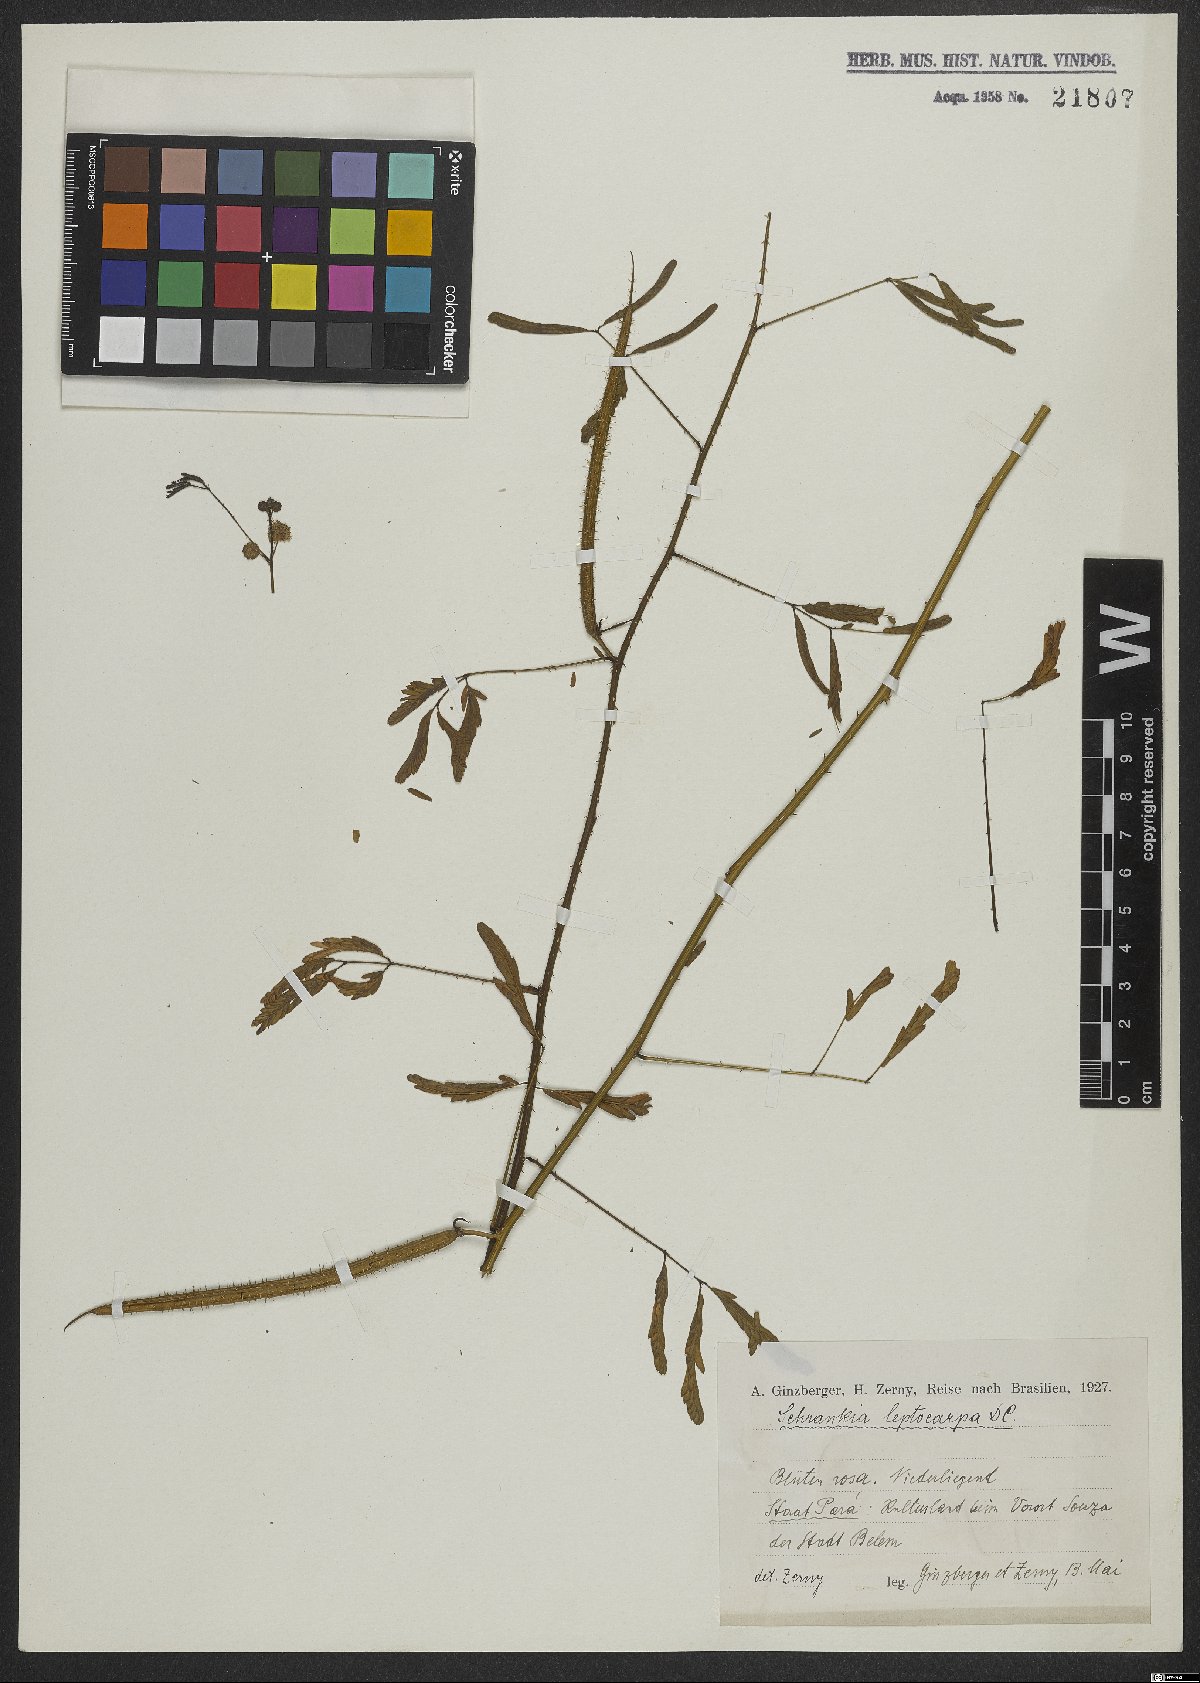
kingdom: Plantae
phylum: Tracheophyta
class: Magnoliopsida
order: Fabales
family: Fabaceae
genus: Mimosa
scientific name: Mimosa candollei
